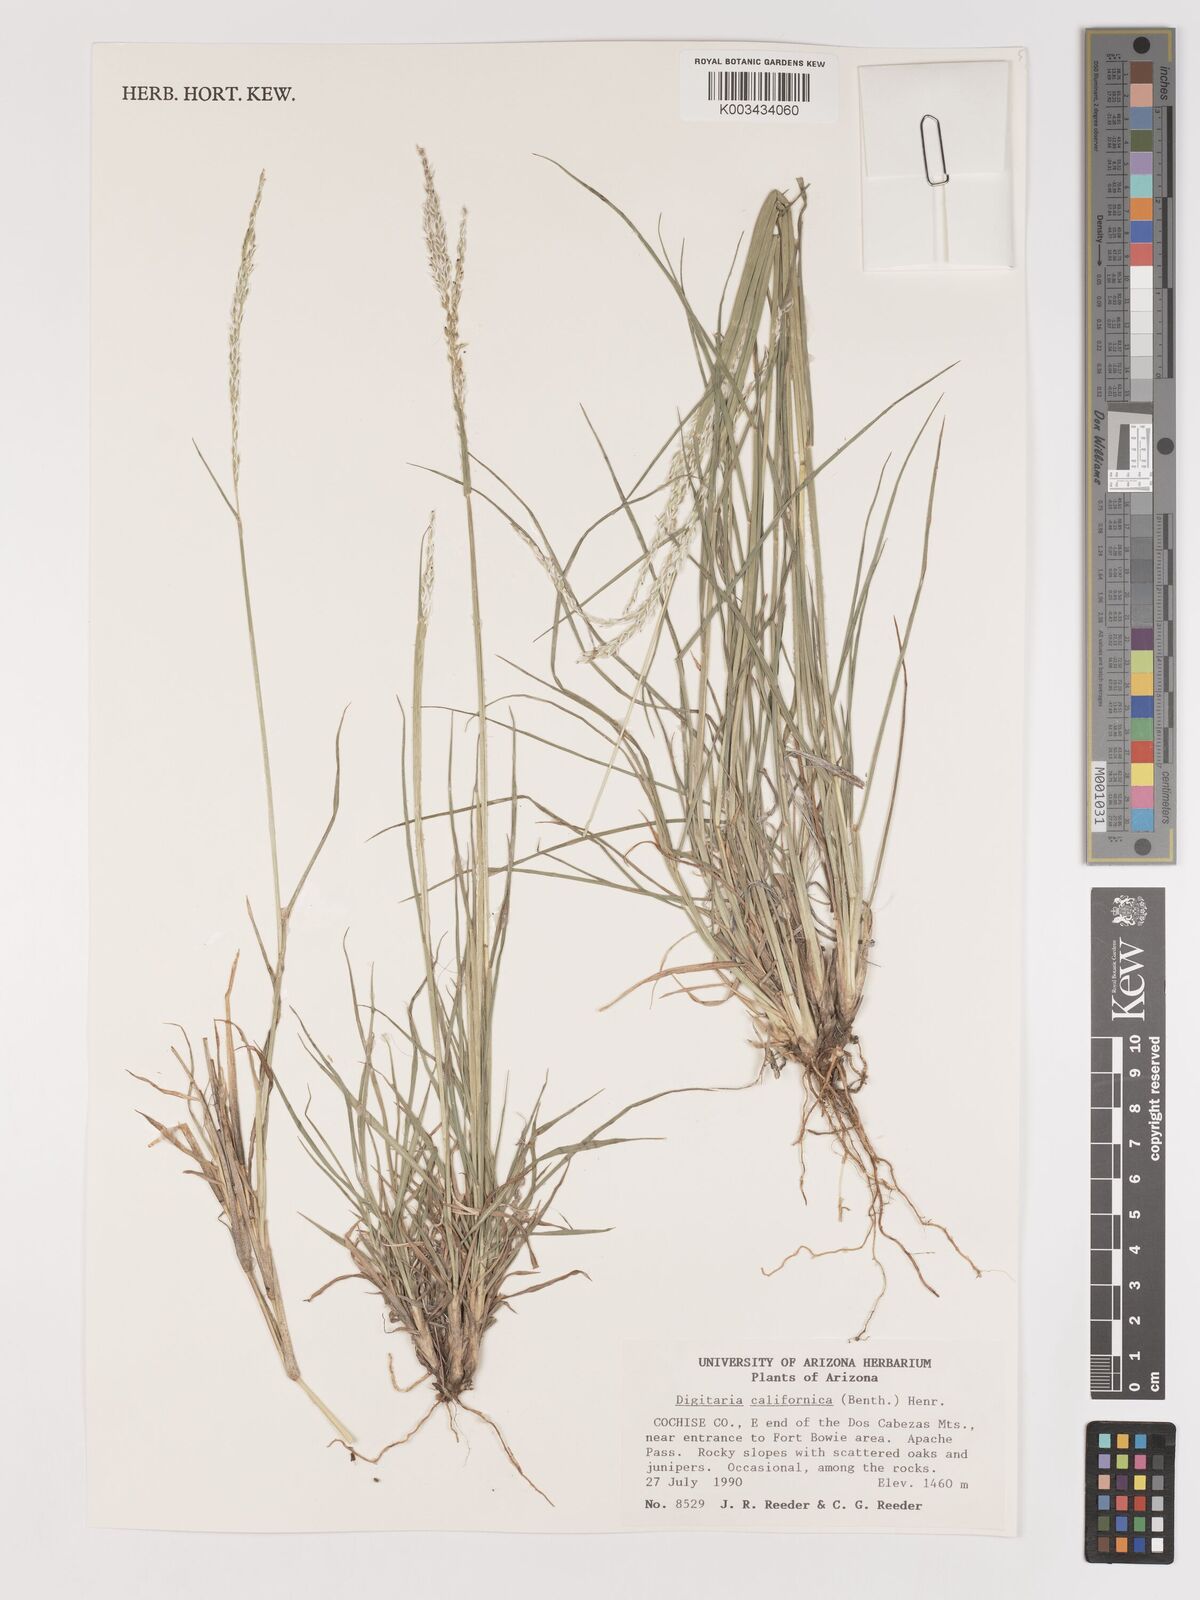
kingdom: Plantae
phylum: Tracheophyta
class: Liliopsida
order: Poales
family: Poaceae
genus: Digitaria
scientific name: Digitaria californica
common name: Arizona cottontop
